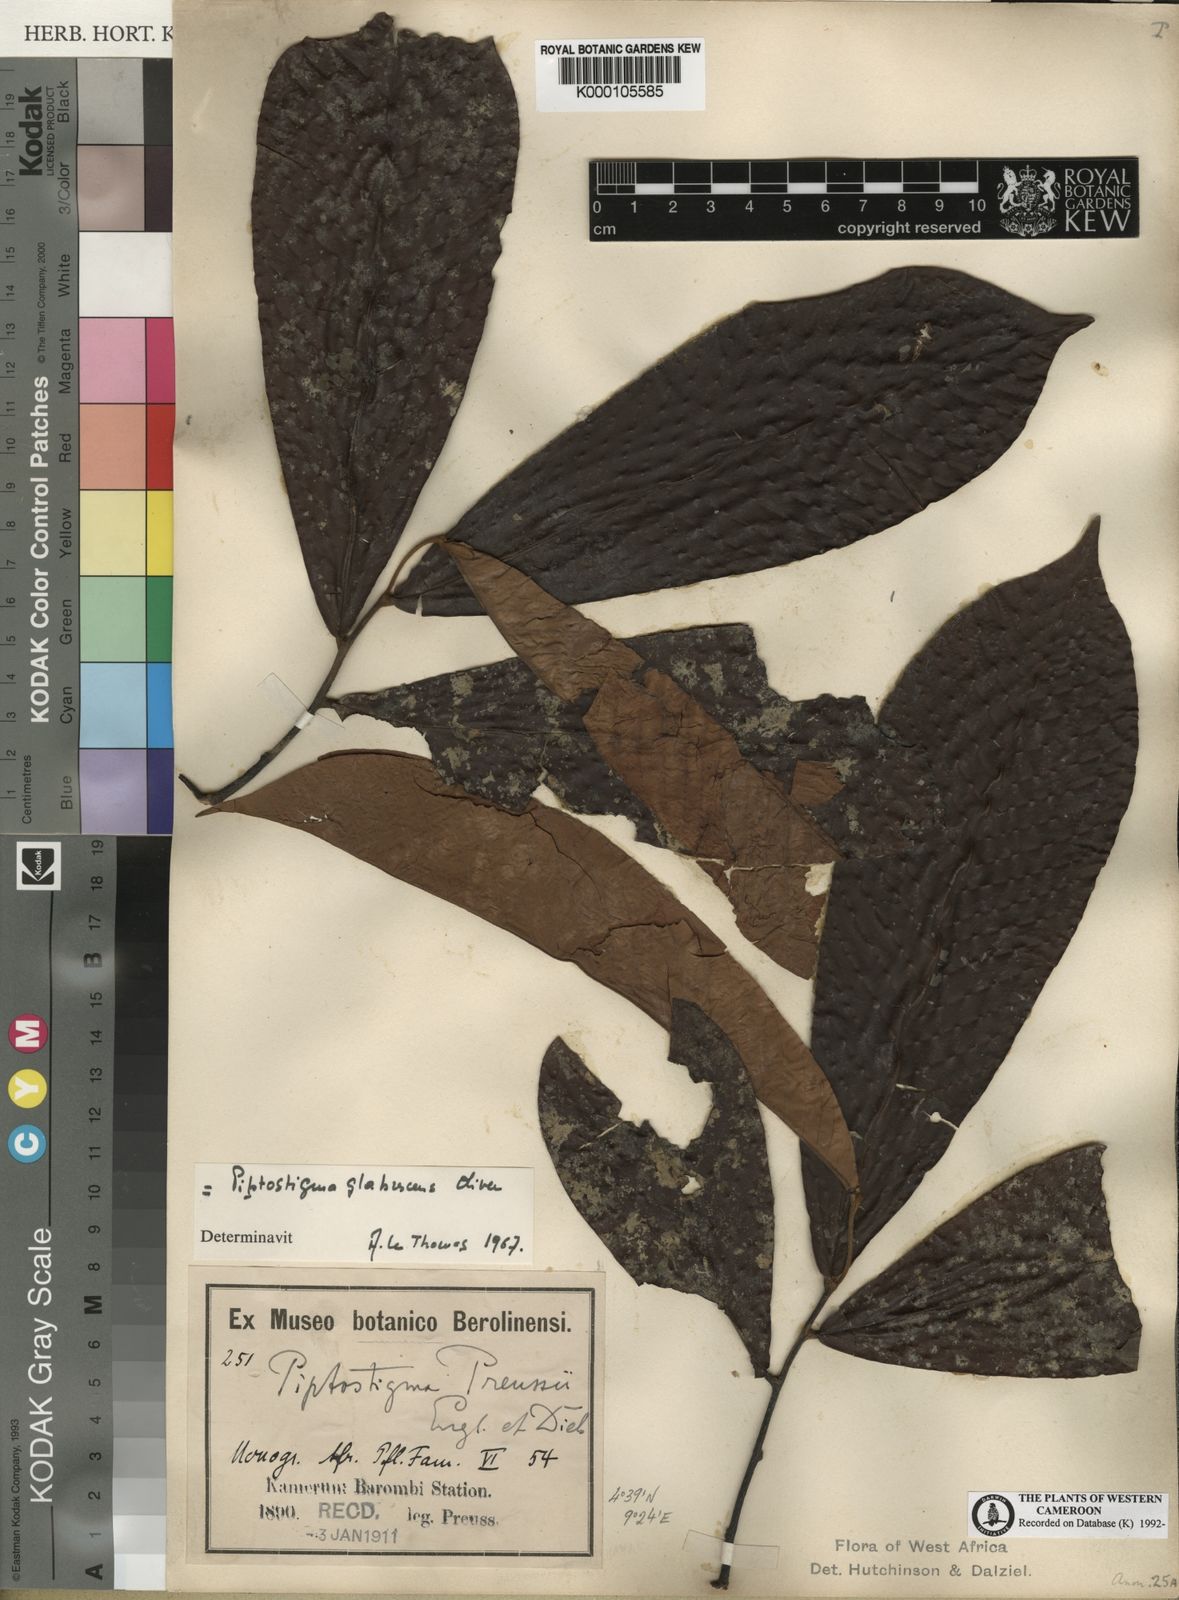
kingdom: Plantae
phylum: Tracheophyta
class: Magnoliopsida
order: Magnoliales
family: Annonaceae
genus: Piptostigma
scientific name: Piptostigma glabrescens
